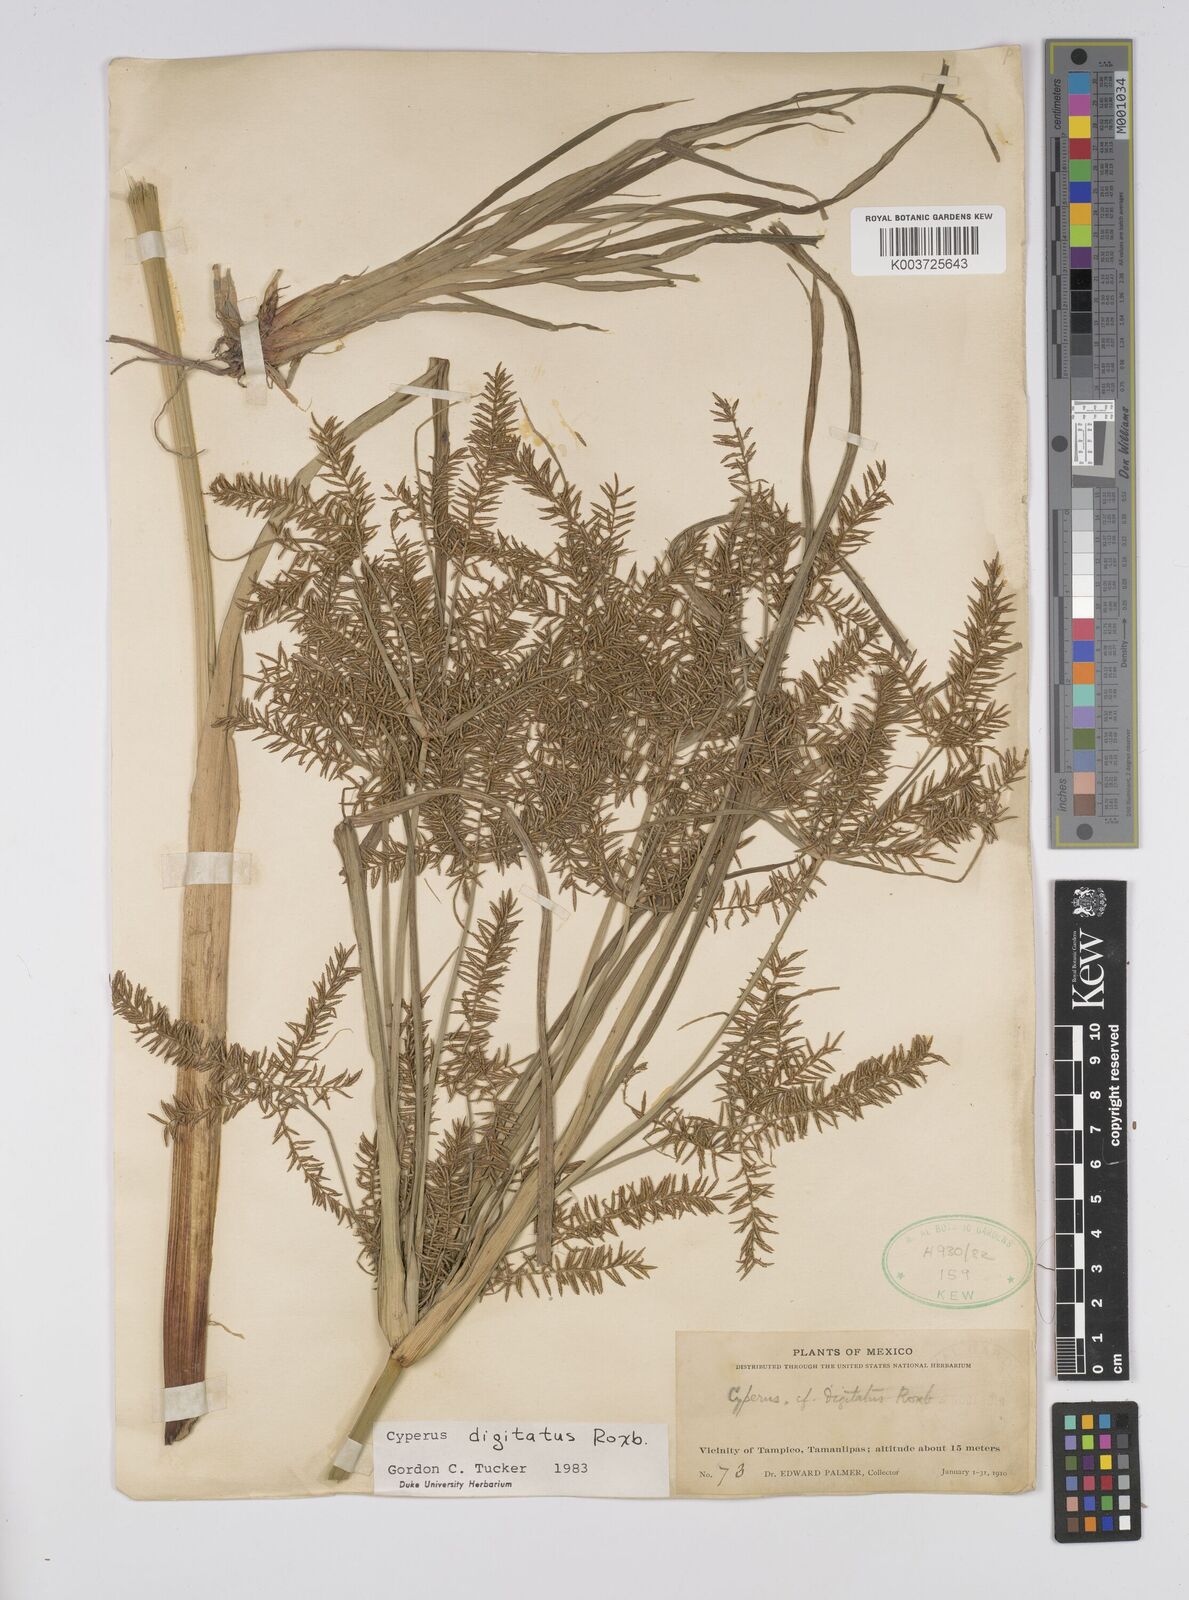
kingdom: Plantae
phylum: Tracheophyta
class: Liliopsida
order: Poales
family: Cyperaceae
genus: Cyperus
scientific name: Cyperus digitatus
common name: Finger flatsedge
